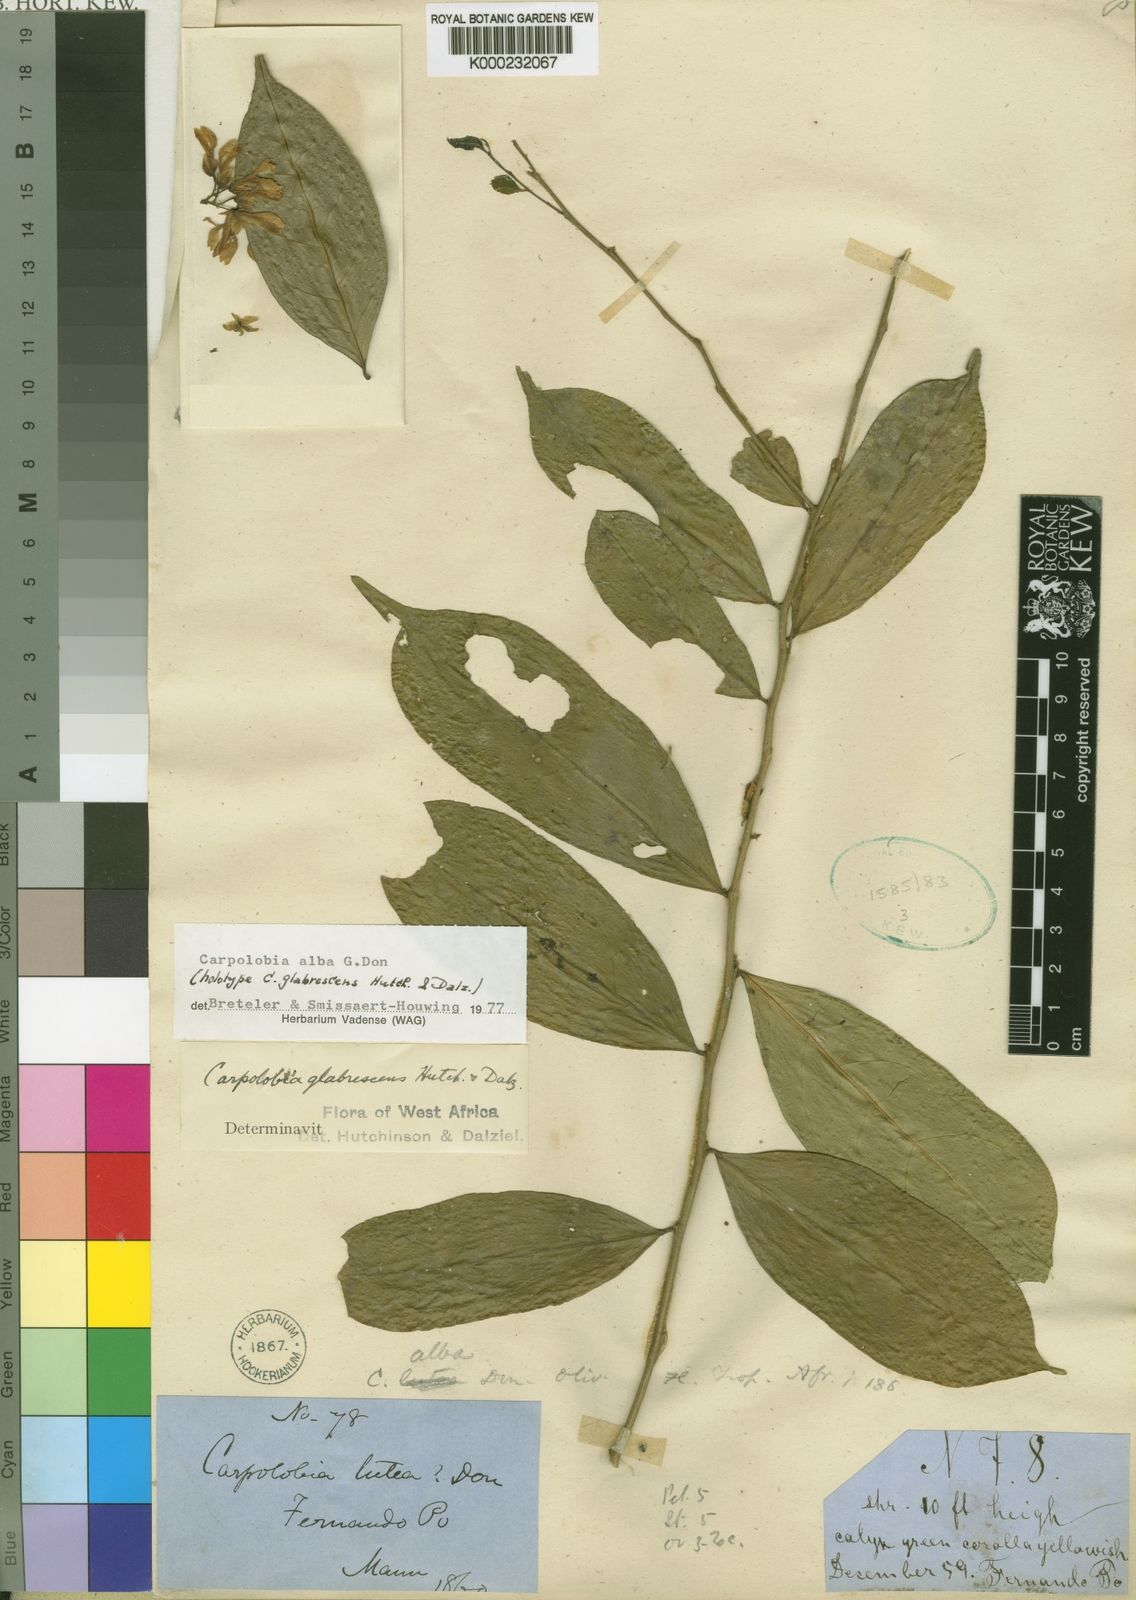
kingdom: Plantae
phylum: Tracheophyta
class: Magnoliopsida
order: Fabales
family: Polygalaceae
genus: Carpolobia
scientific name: Carpolobia alba
